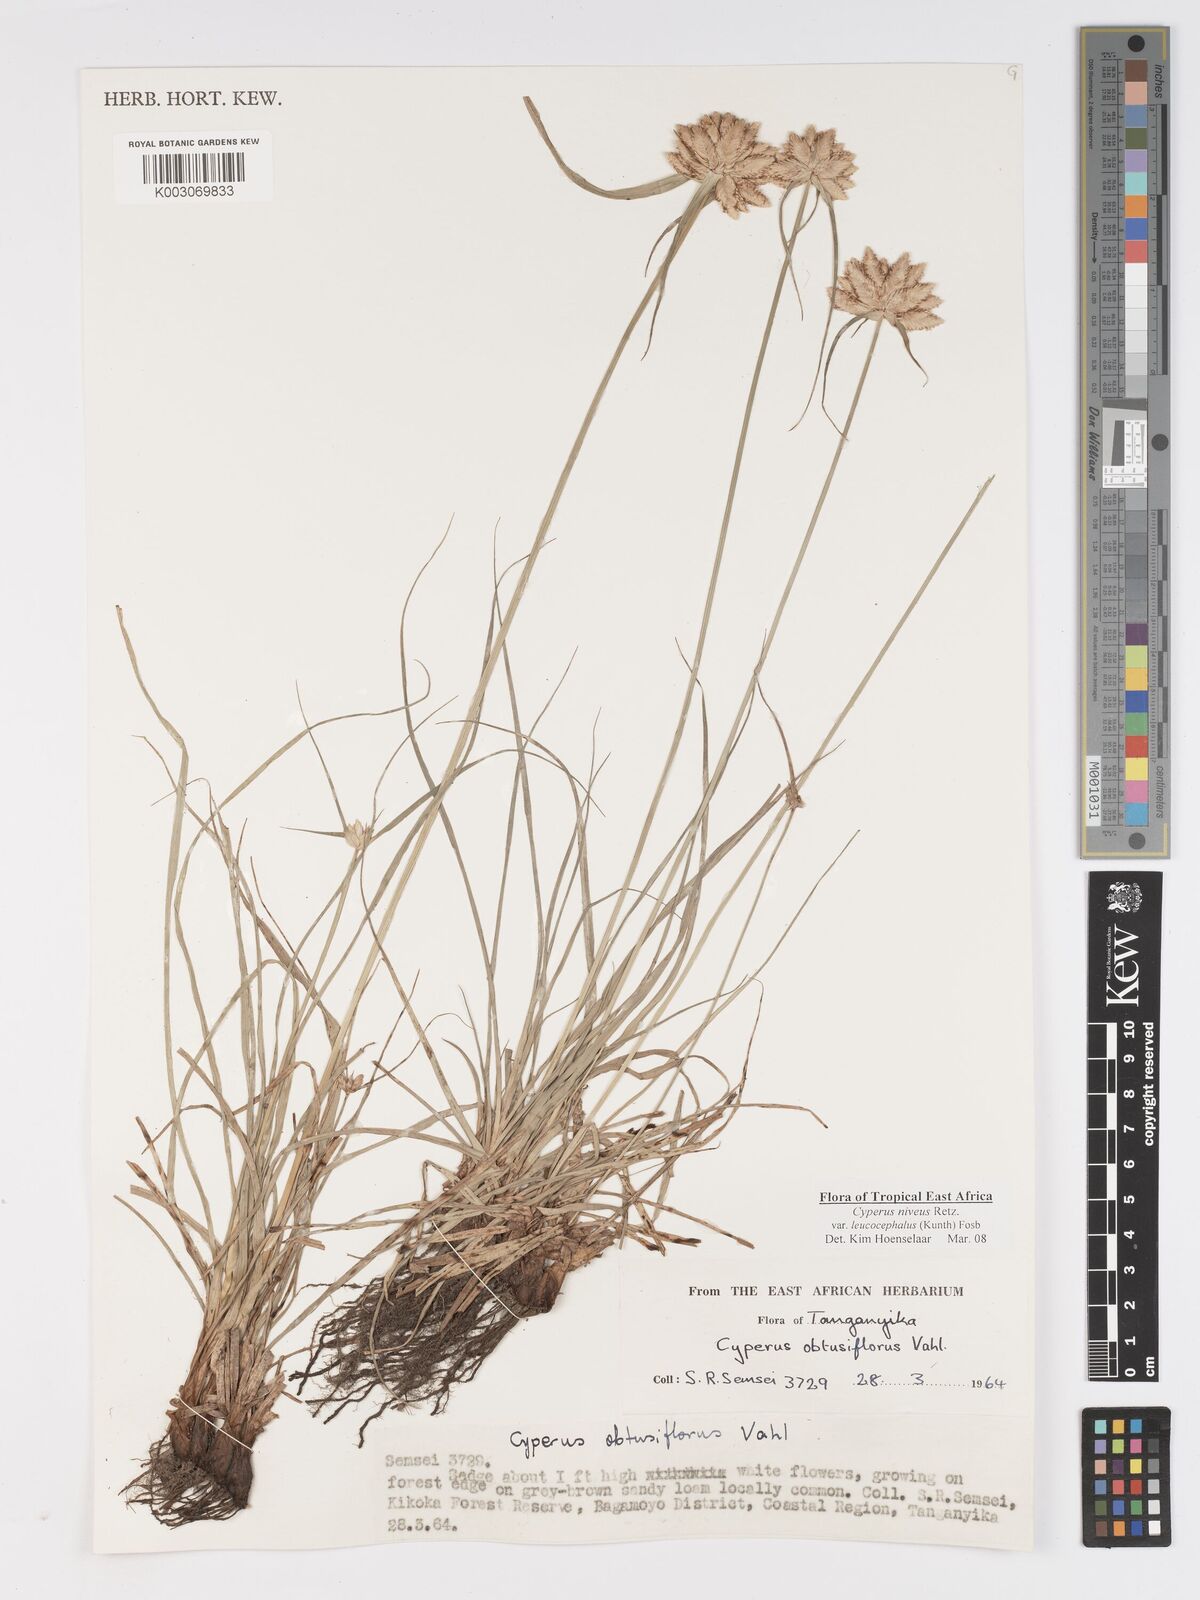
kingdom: Plantae
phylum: Tracheophyta
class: Liliopsida
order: Poales
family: Cyperaceae
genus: Cyperus
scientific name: Cyperus niveus
